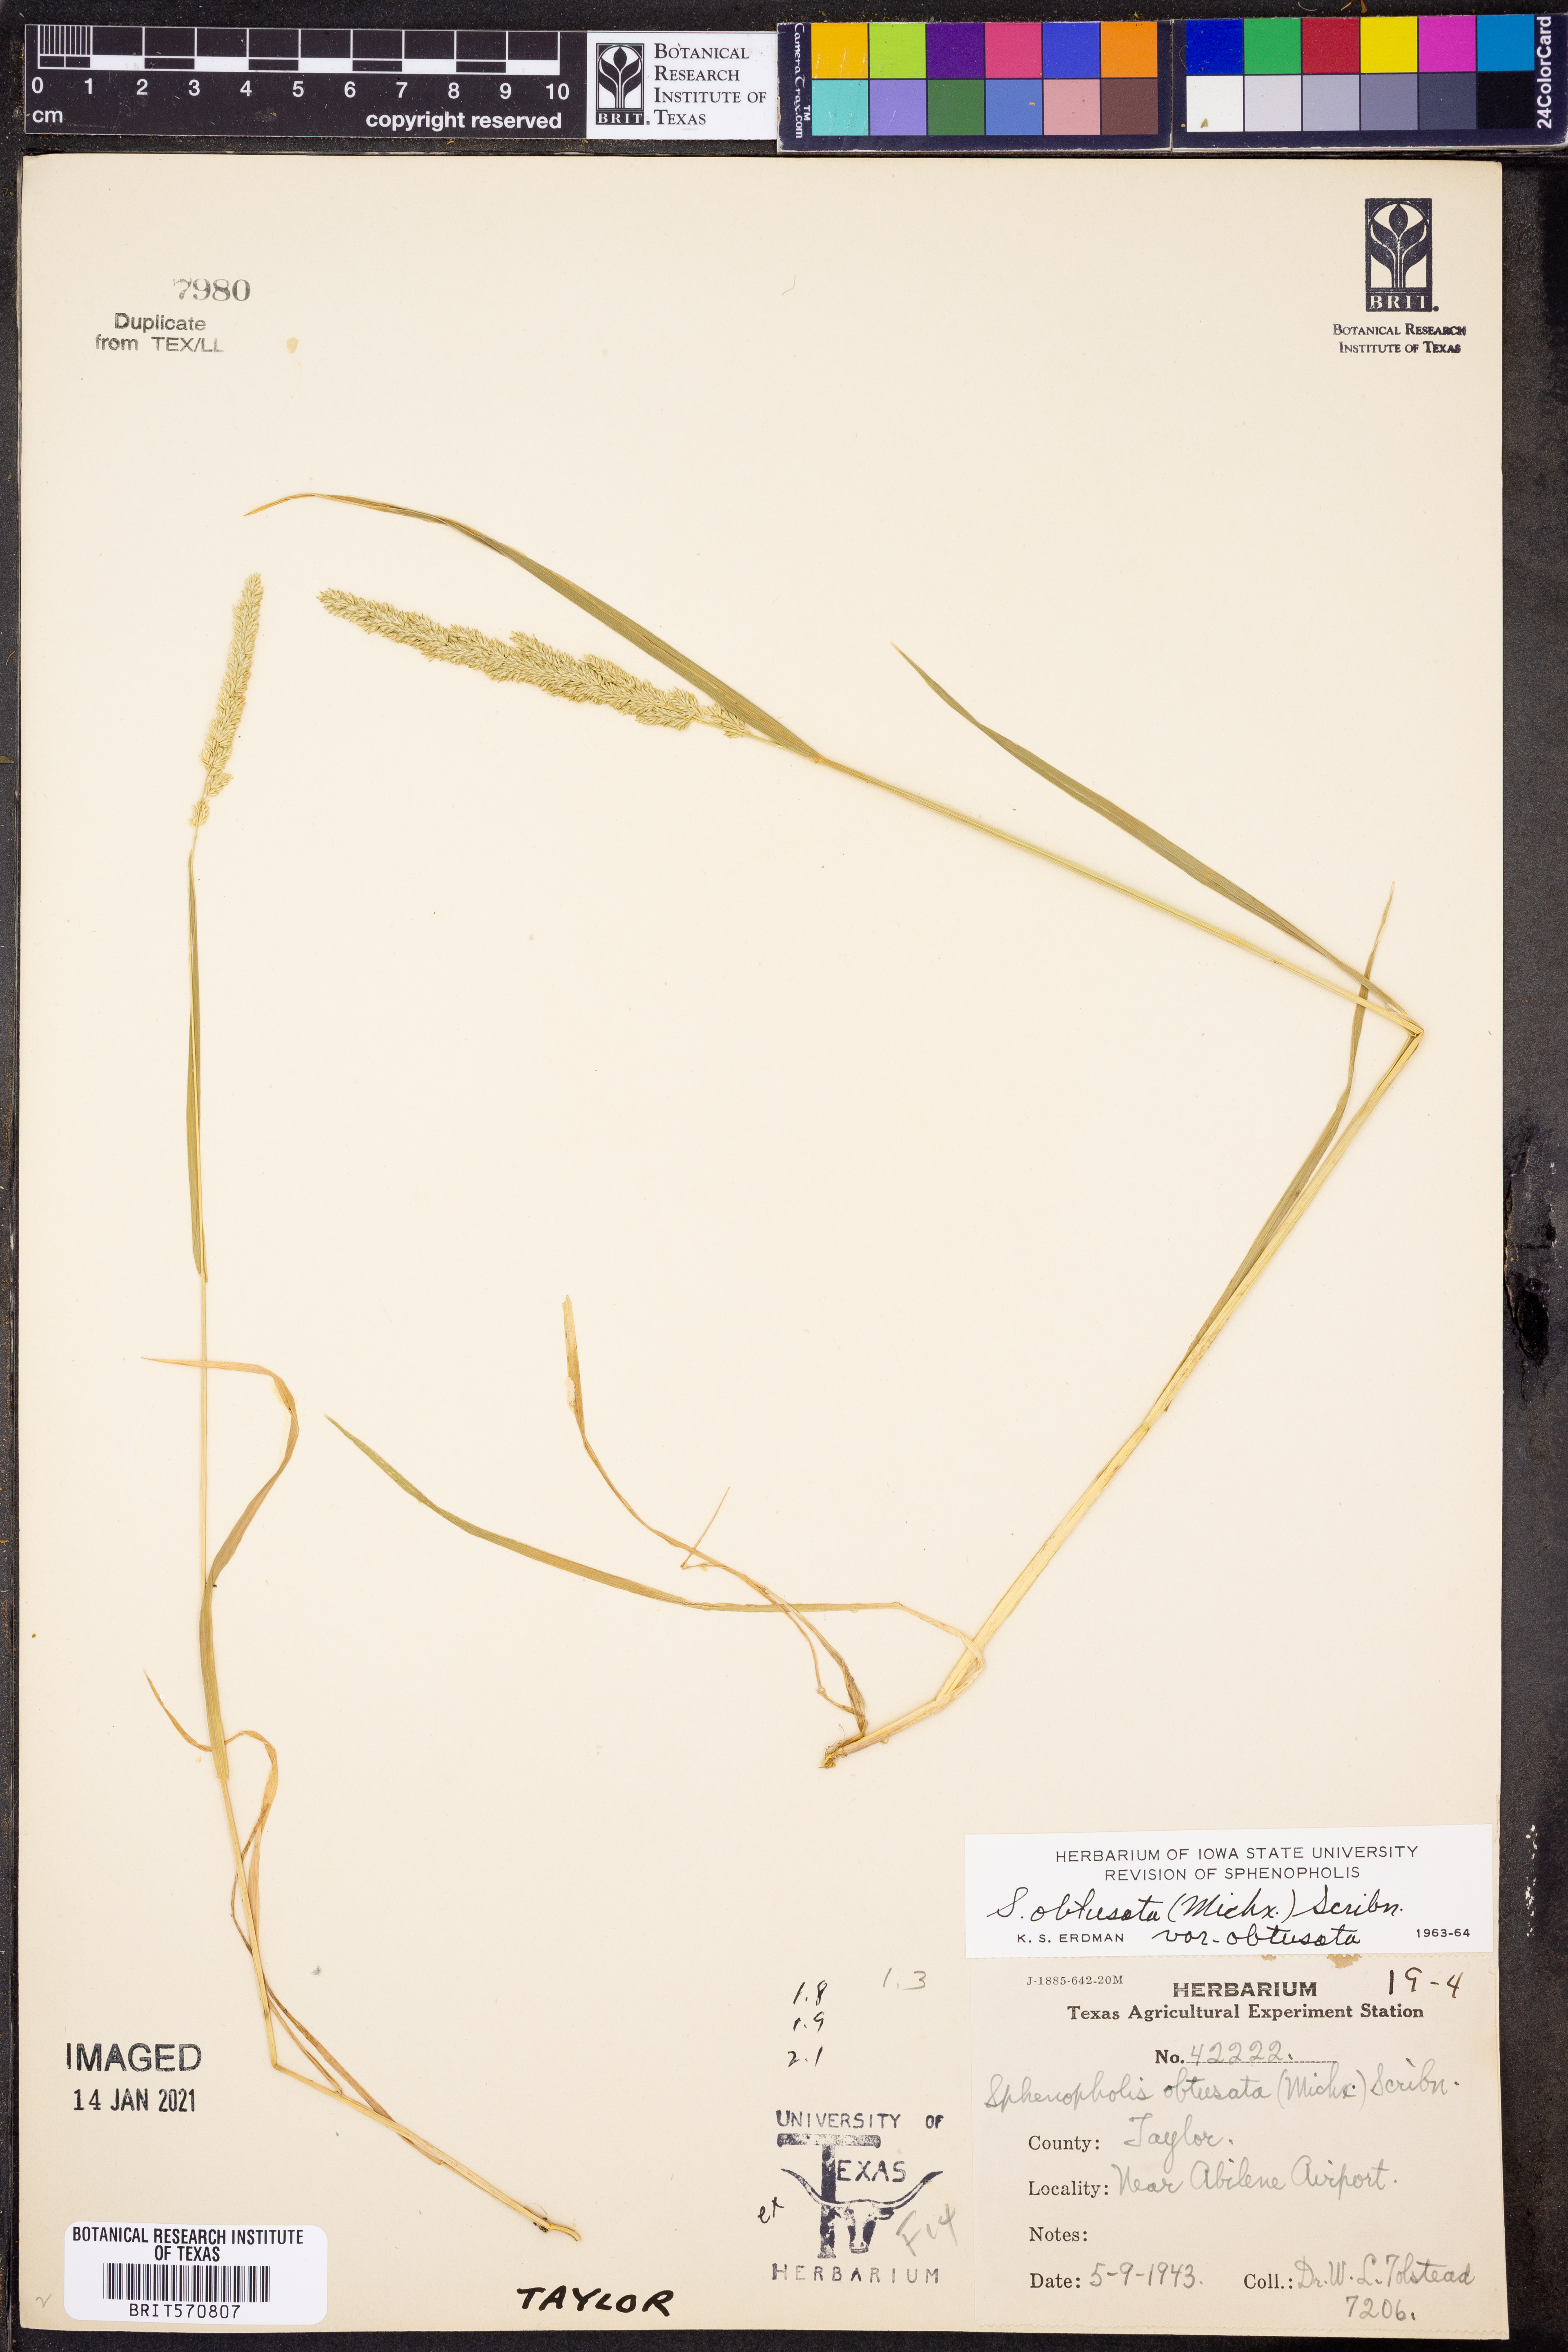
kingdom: Plantae
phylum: Tracheophyta
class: Liliopsida
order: Poales
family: Poaceae
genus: Sphenopholis
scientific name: Sphenopholis obtusata
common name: Prairie grass
